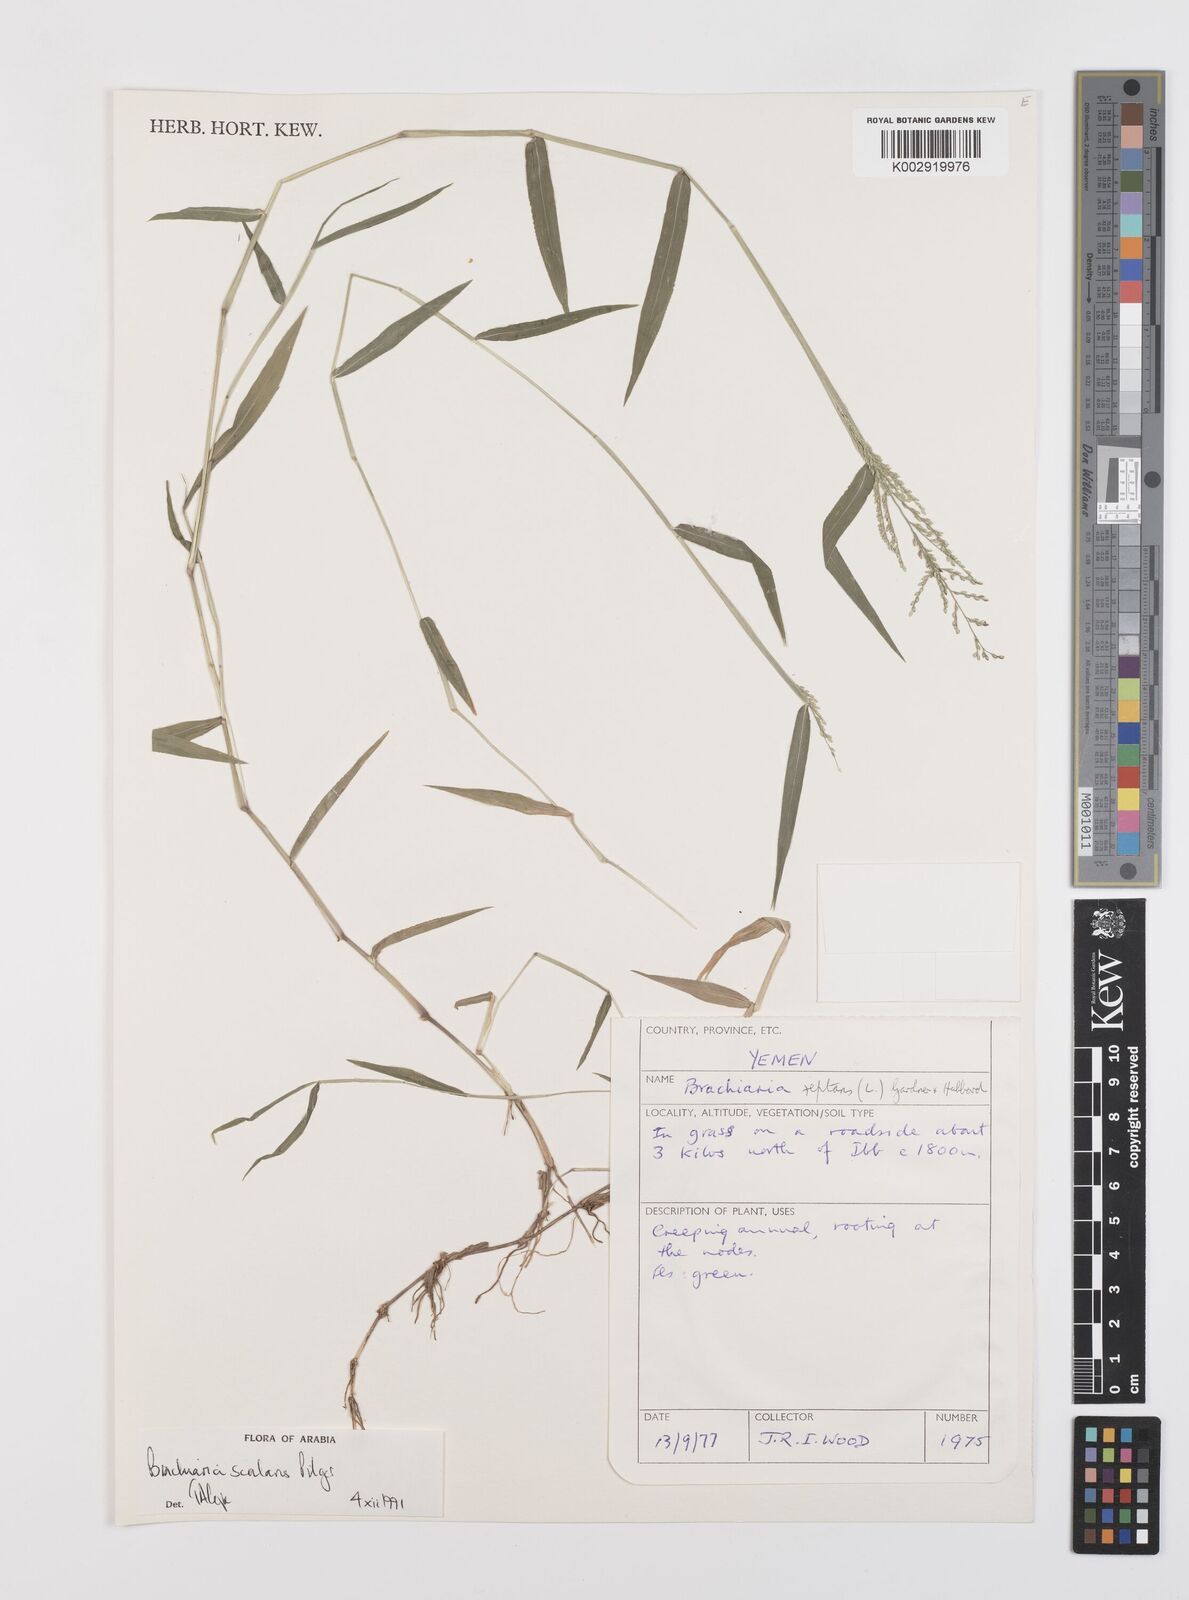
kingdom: Plantae
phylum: Tracheophyta
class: Liliopsida
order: Poales
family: Poaceae
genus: Urochloa
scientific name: Urochloa comata
